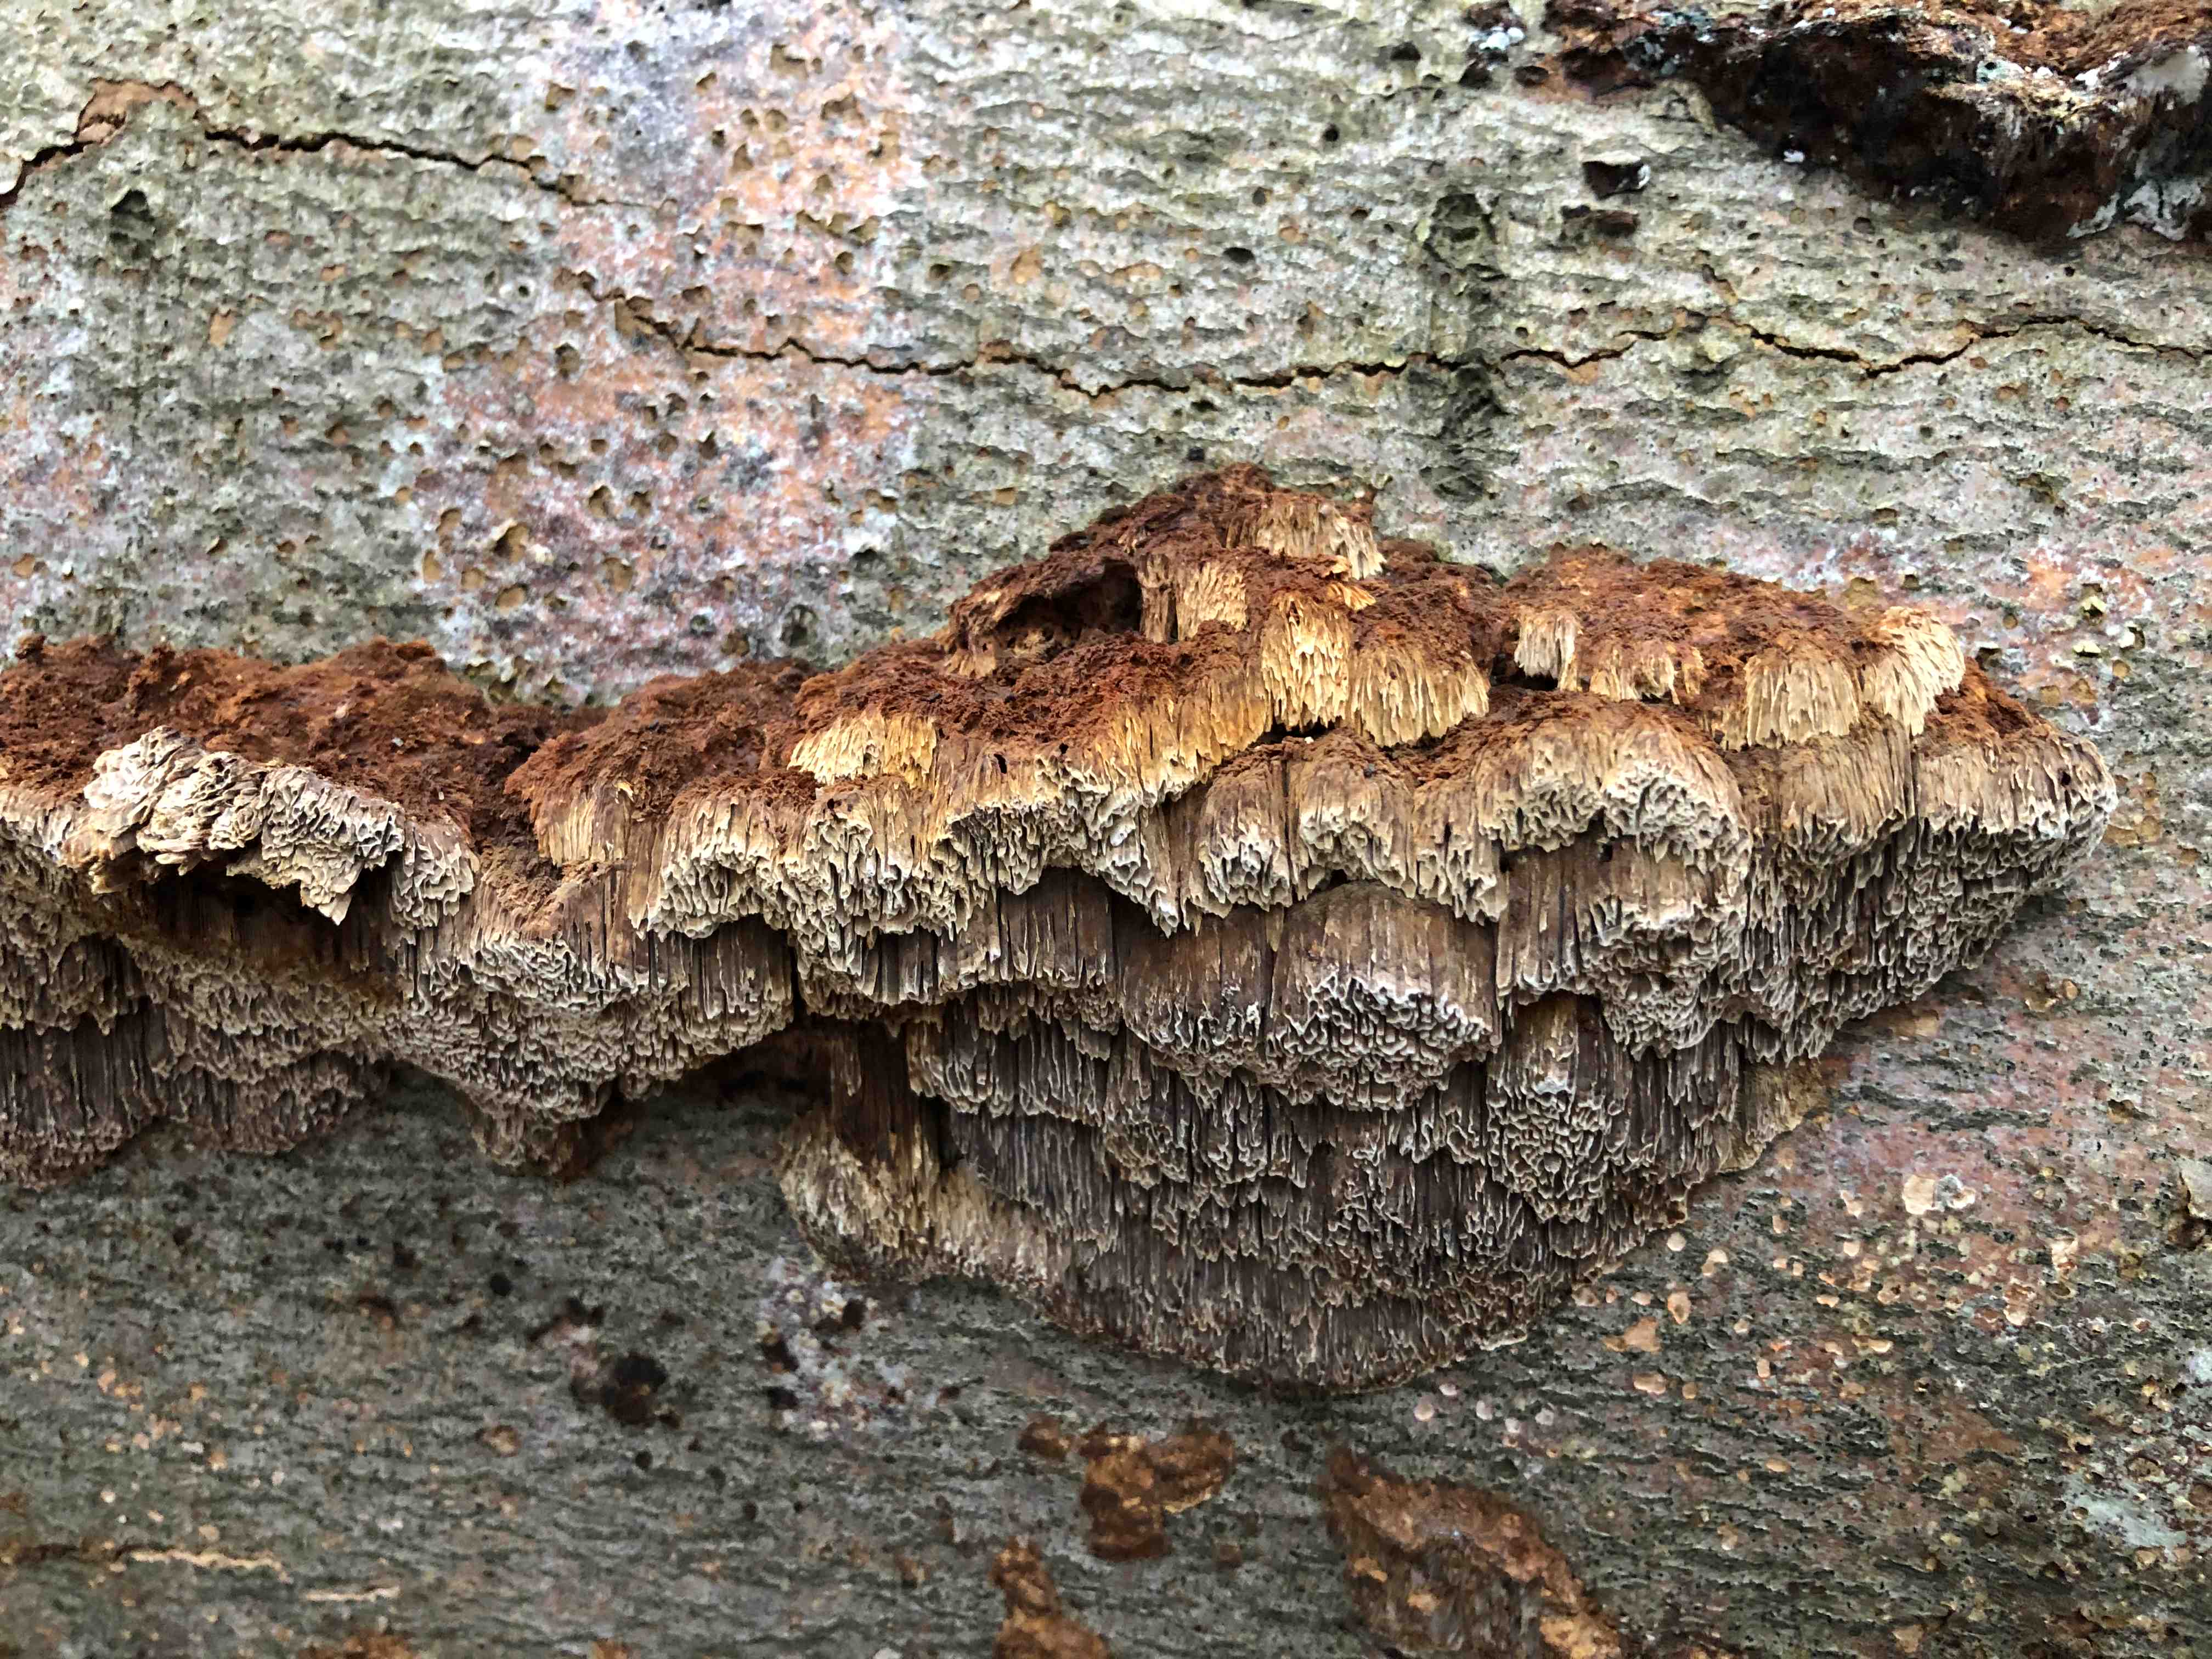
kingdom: Fungi
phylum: Basidiomycota
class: Agaricomycetes
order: Hymenochaetales
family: Hymenochaetaceae
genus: Mensularia
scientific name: Mensularia nodulosa
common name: bøge-spejlporesvamp
